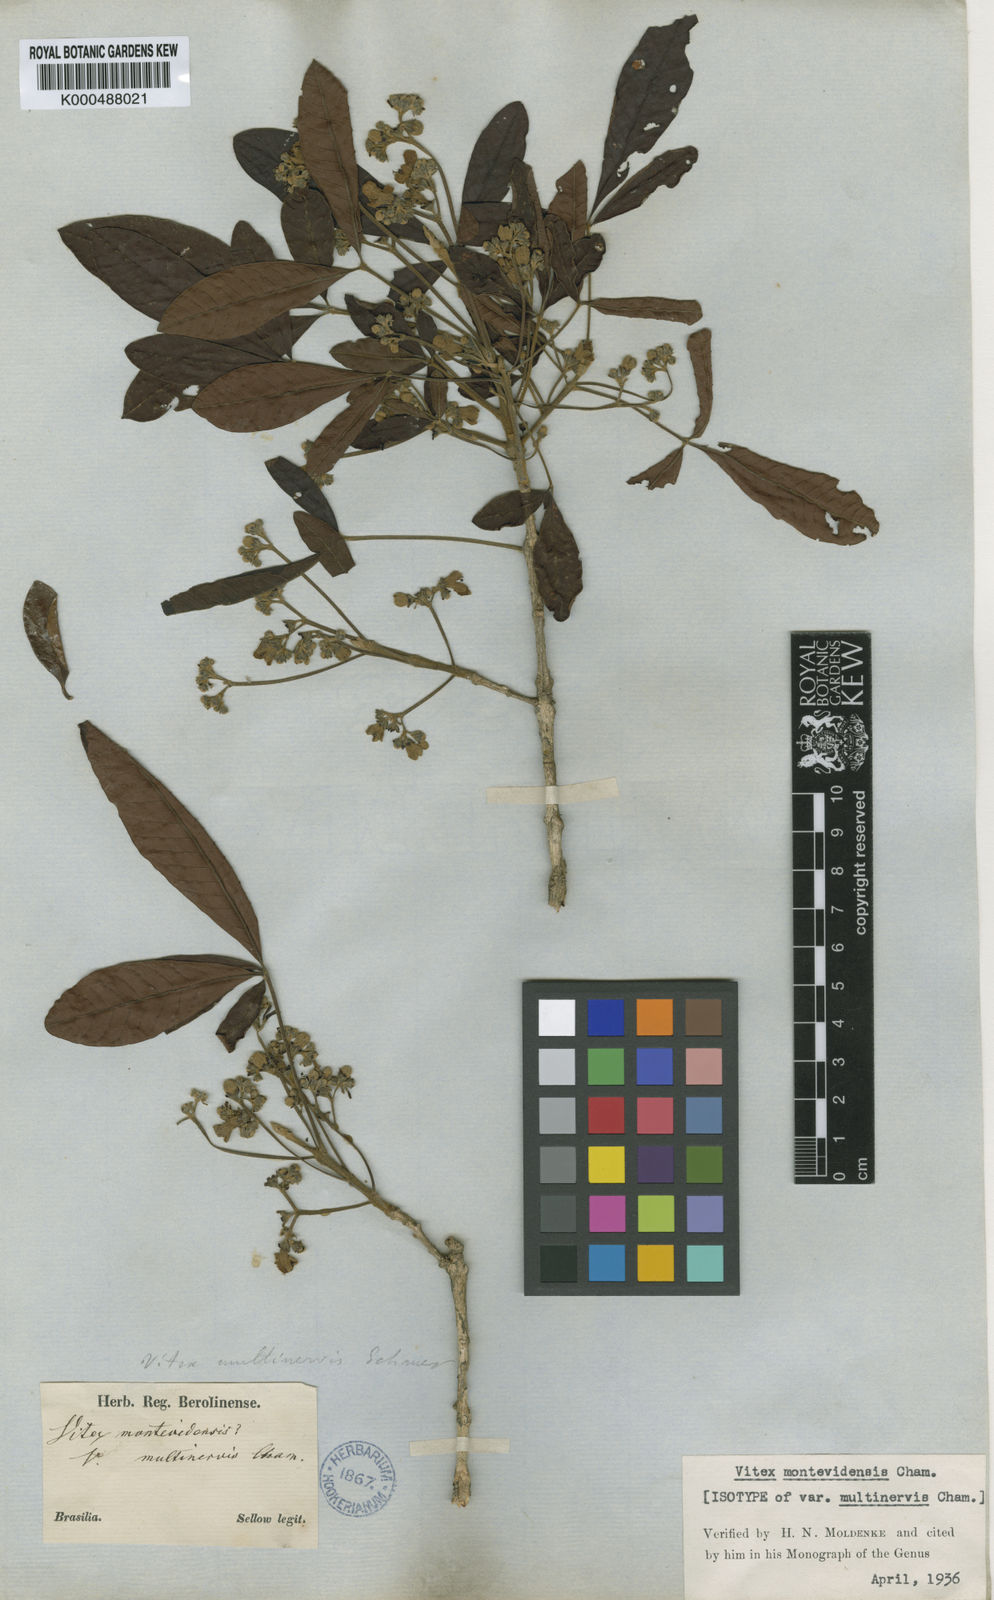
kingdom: Plantae
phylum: Tracheophyta
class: Magnoliopsida
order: Lamiales
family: Lamiaceae
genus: Vitex
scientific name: Vitex megapotamica
